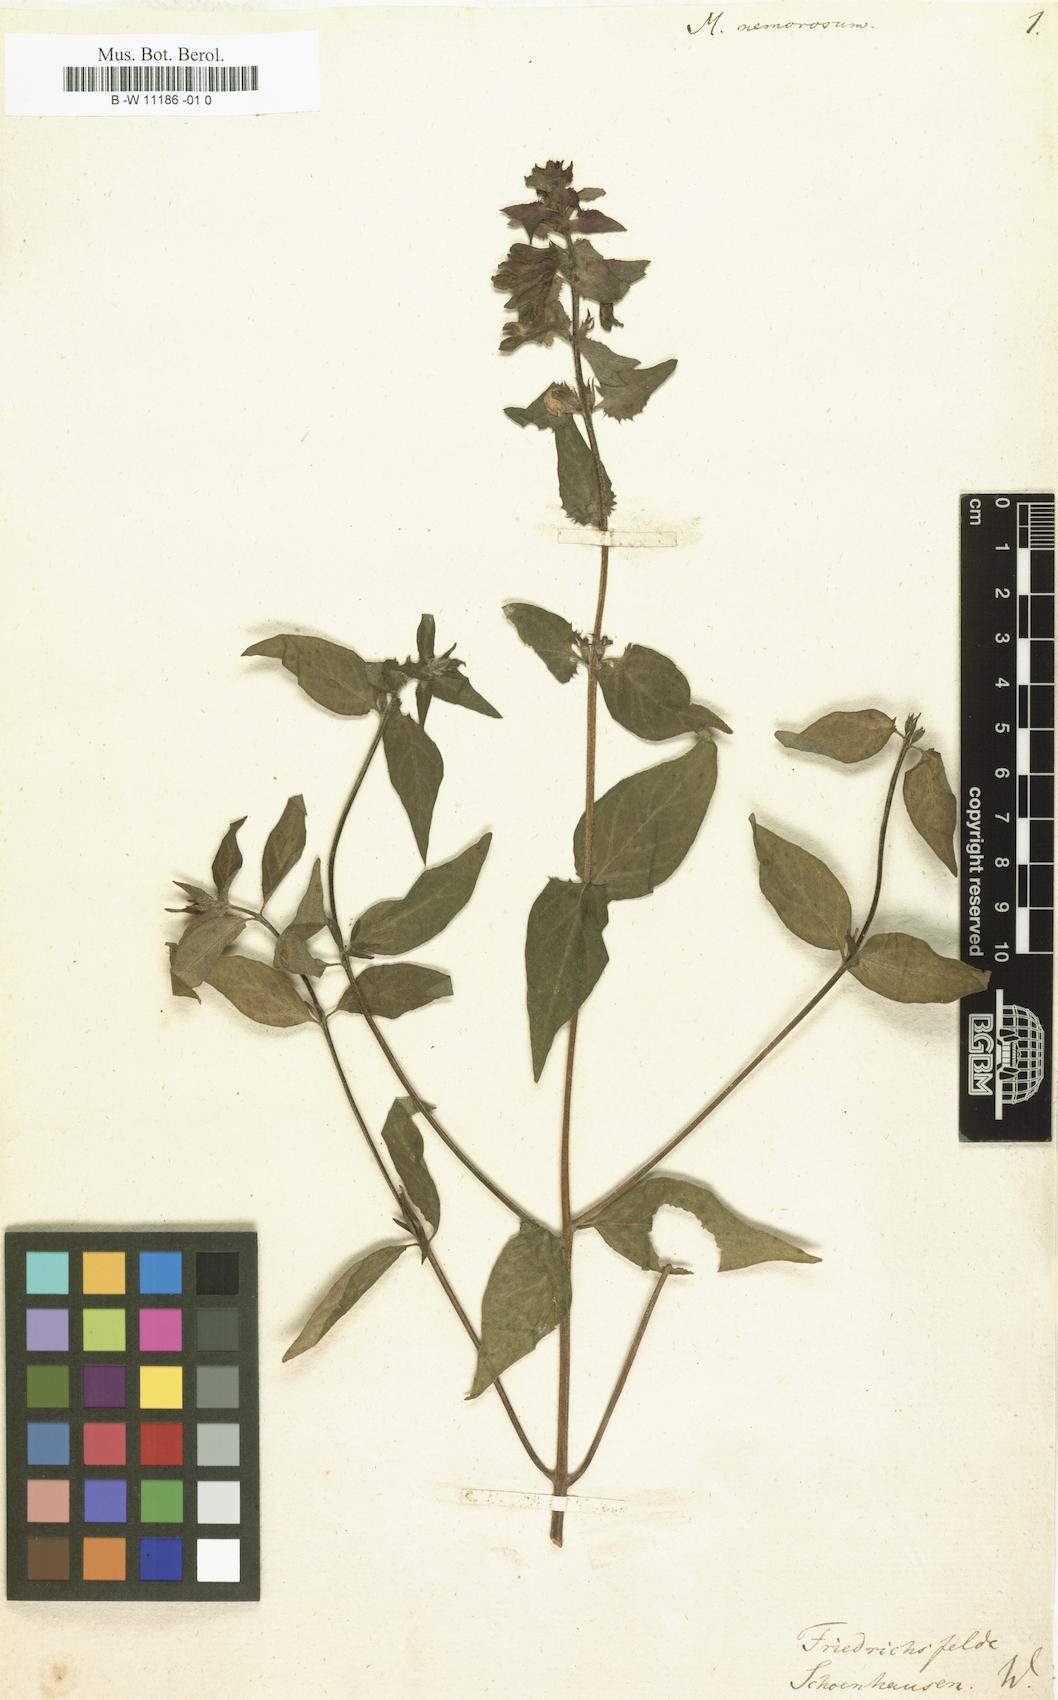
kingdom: Plantae
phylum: Tracheophyta
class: Magnoliopsida
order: Lamiales
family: Orobanchaceae
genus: Melampyrum
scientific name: Melampyrum nemorosum
